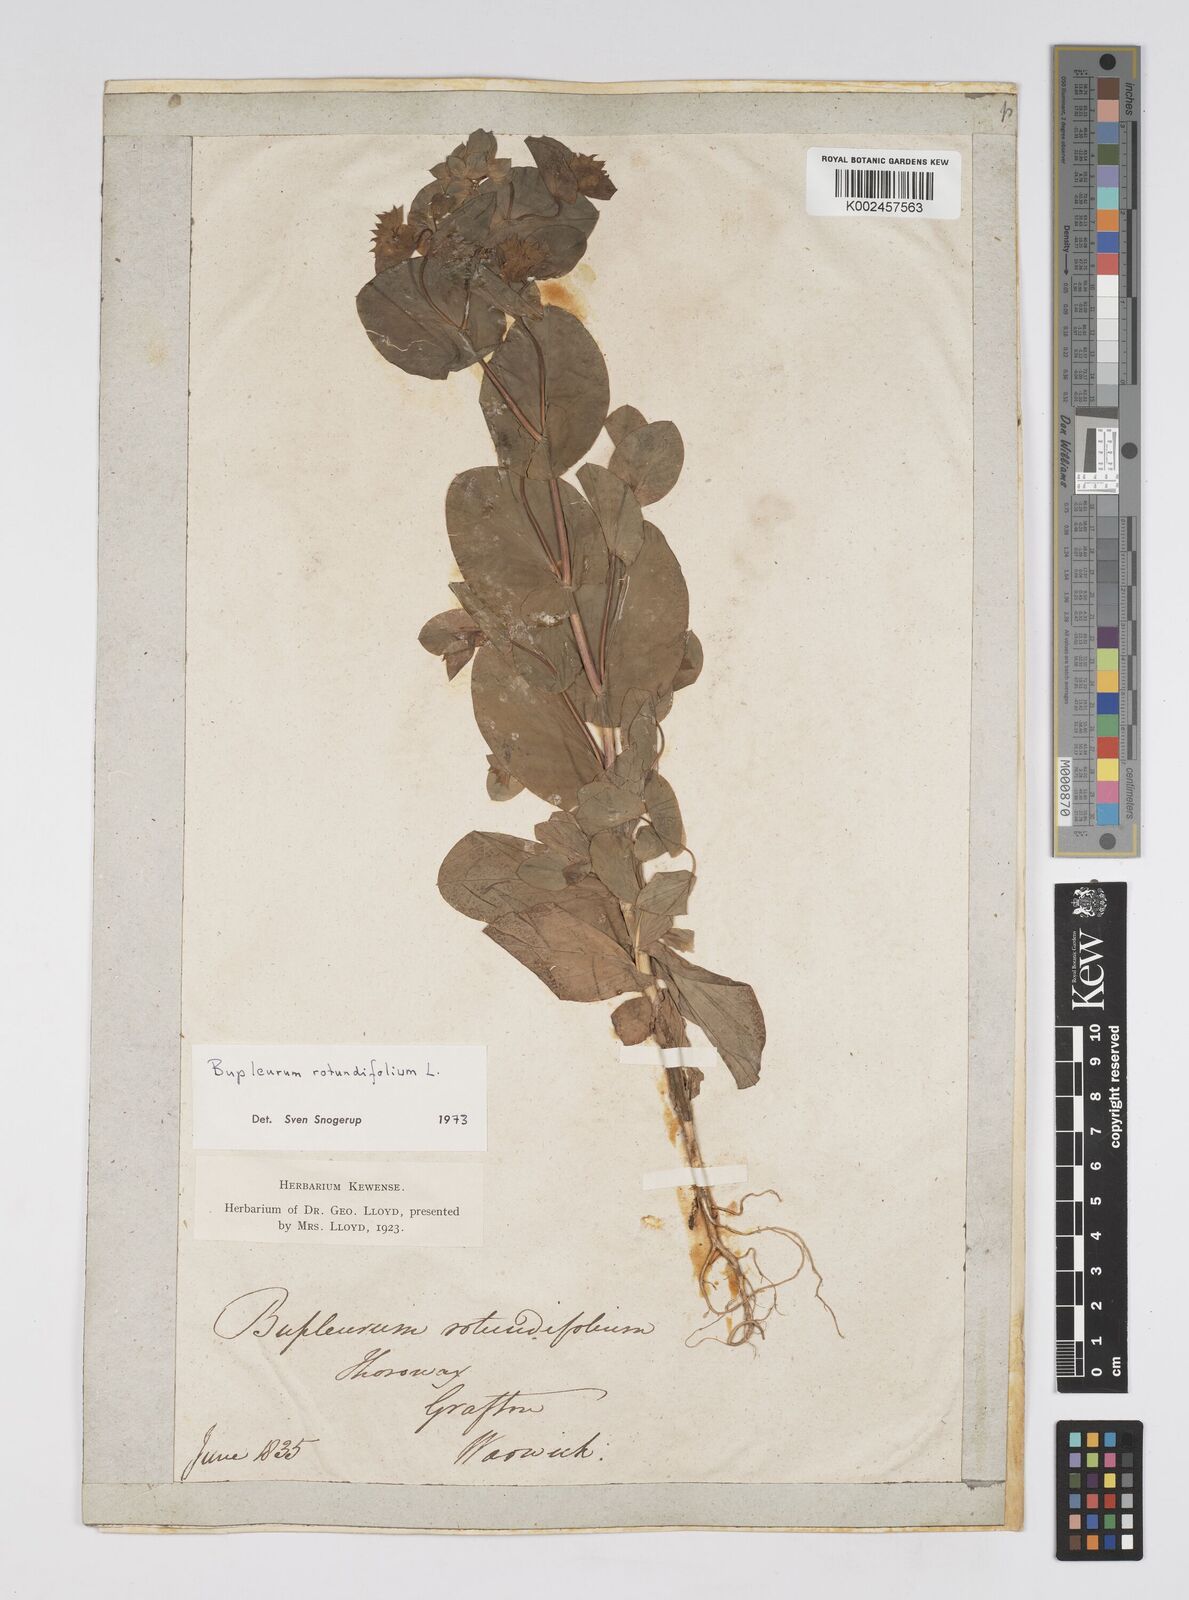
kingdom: Plantae
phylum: Tracheophyta
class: Magnoliopsida
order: Apiales
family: Apiaceae
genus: Bupleurum
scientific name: Bupleurum rotundifolium
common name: Thorow-wax
